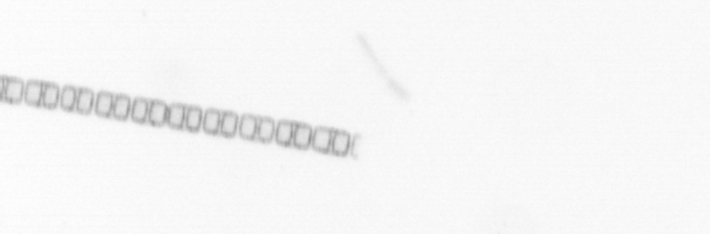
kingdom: Chromista
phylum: Ochrophyta
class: Bacillariophyceae
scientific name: Bacillariophyceae
